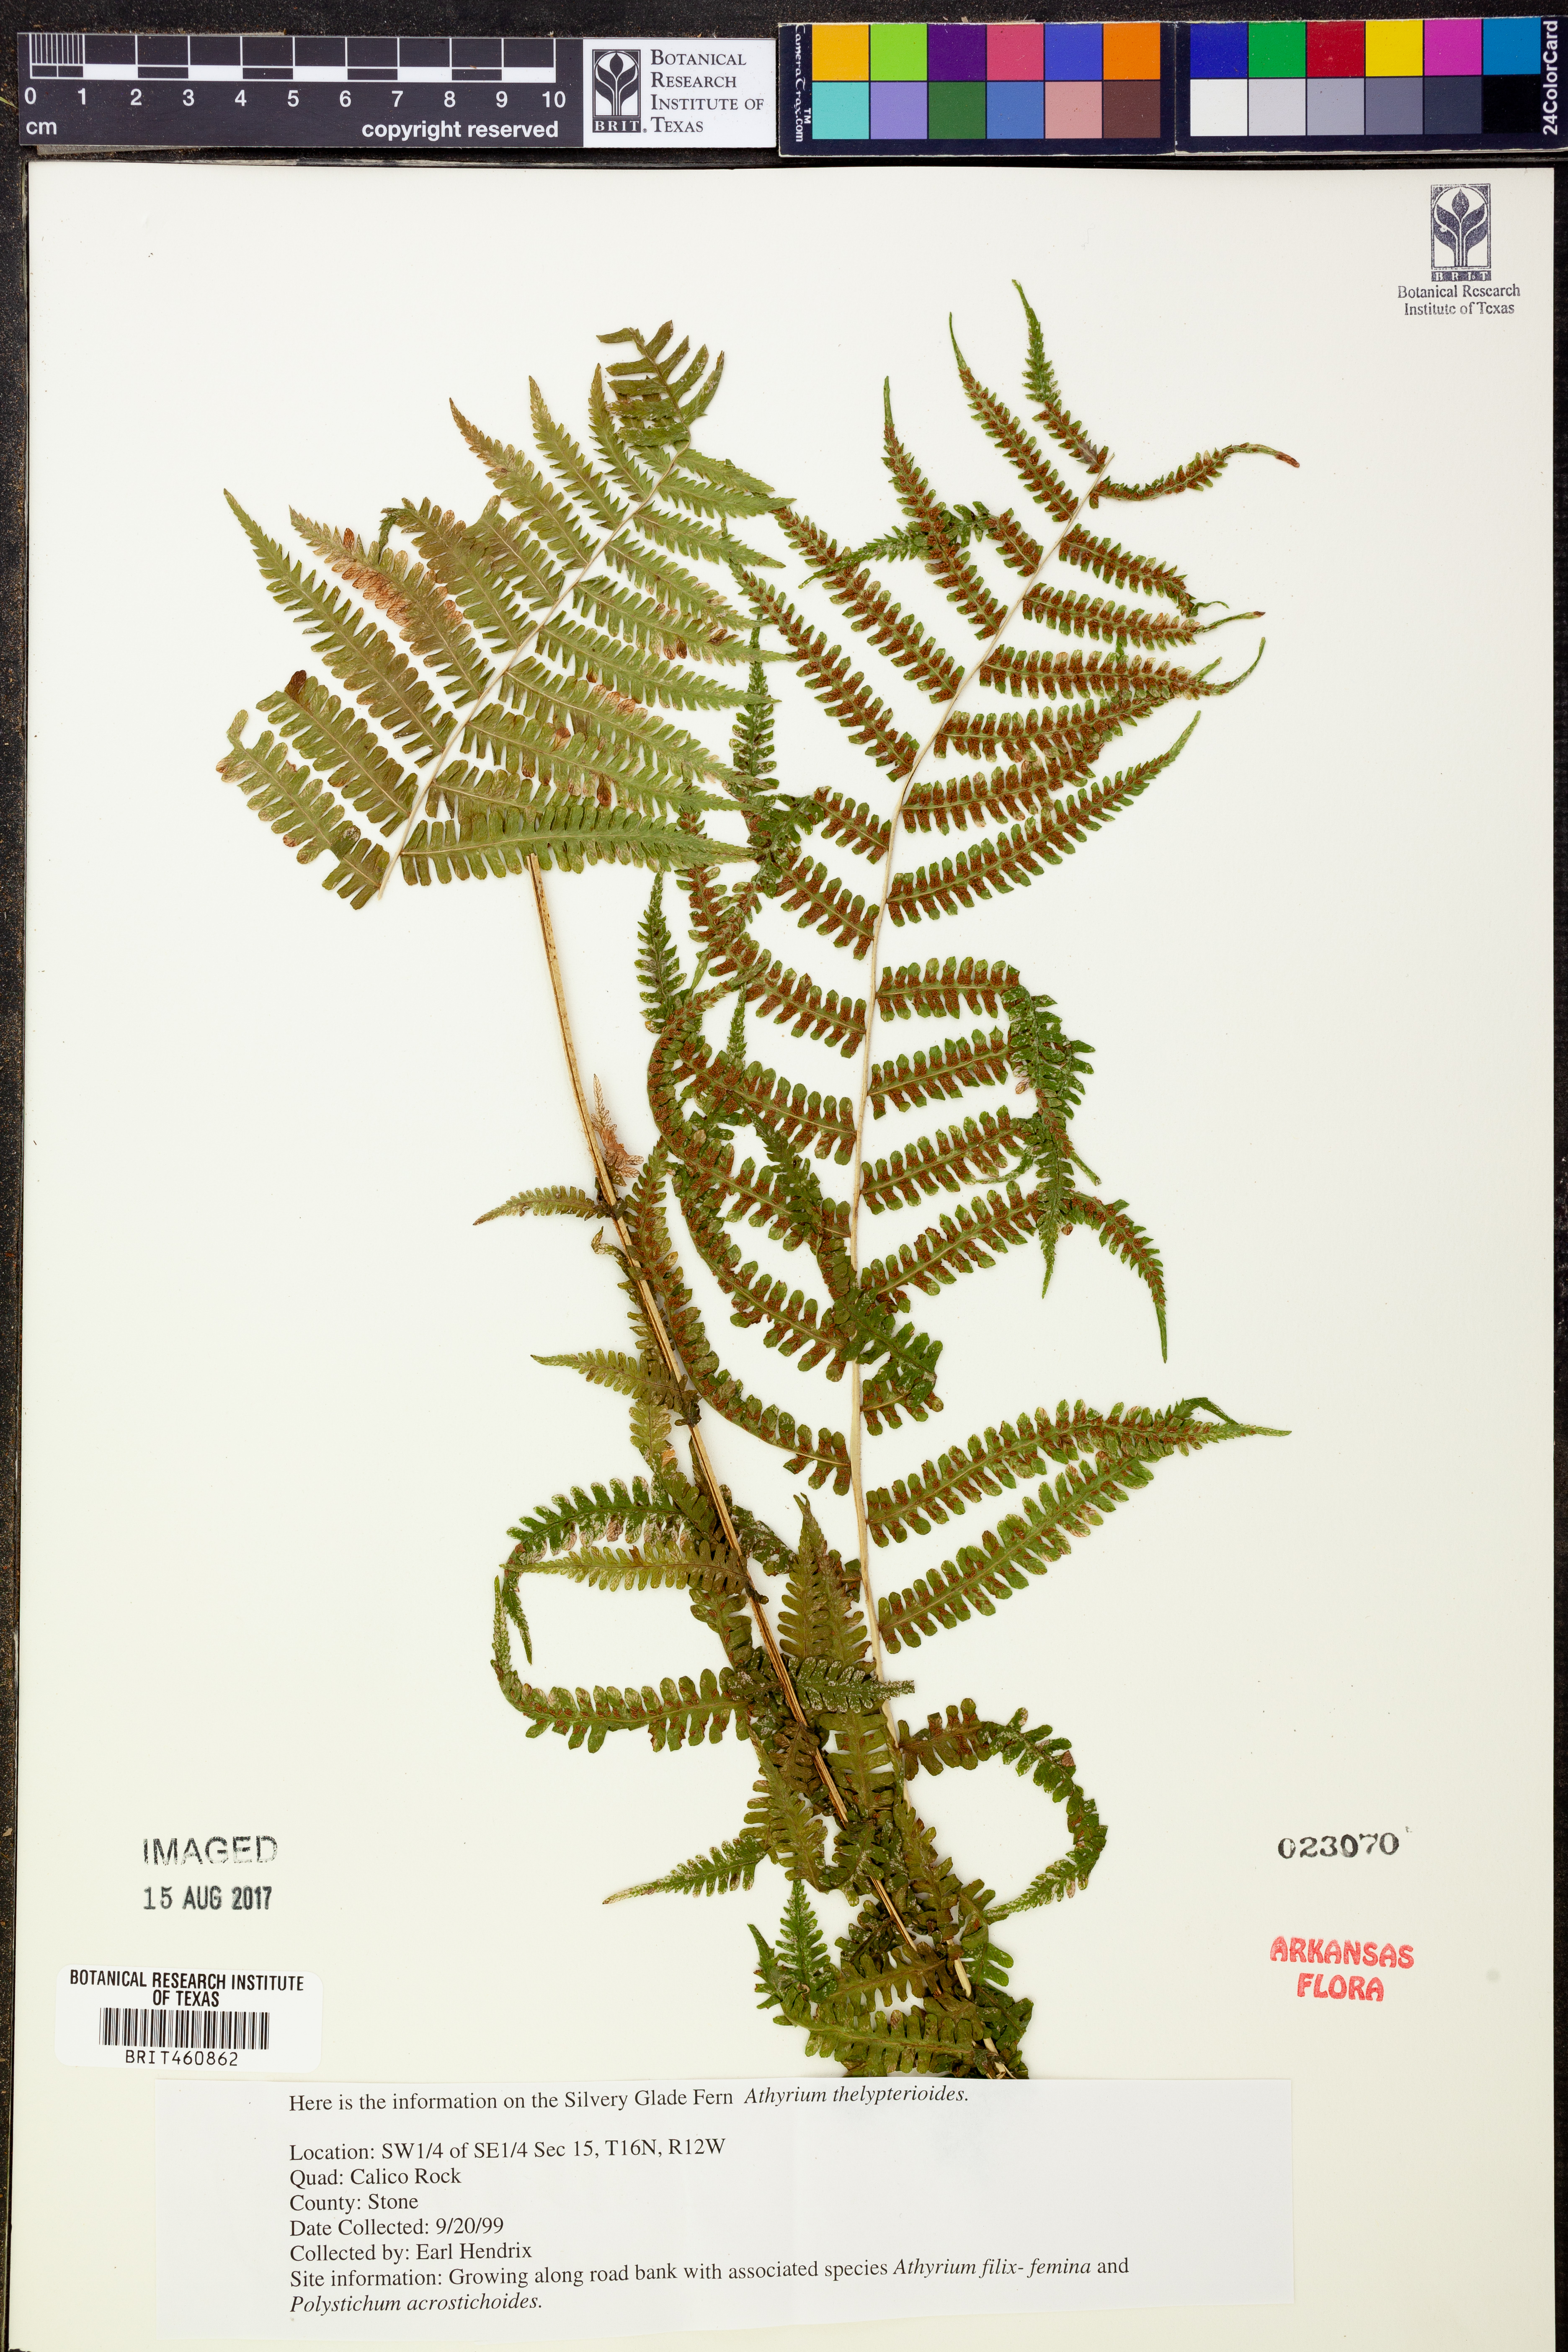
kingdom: Plantae
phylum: Tracheophyta
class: Polypodiopsida
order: Polypodiales
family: Athyriaceae
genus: Deparia
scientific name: Deparia acrostichoides
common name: Silver false spleenwort
